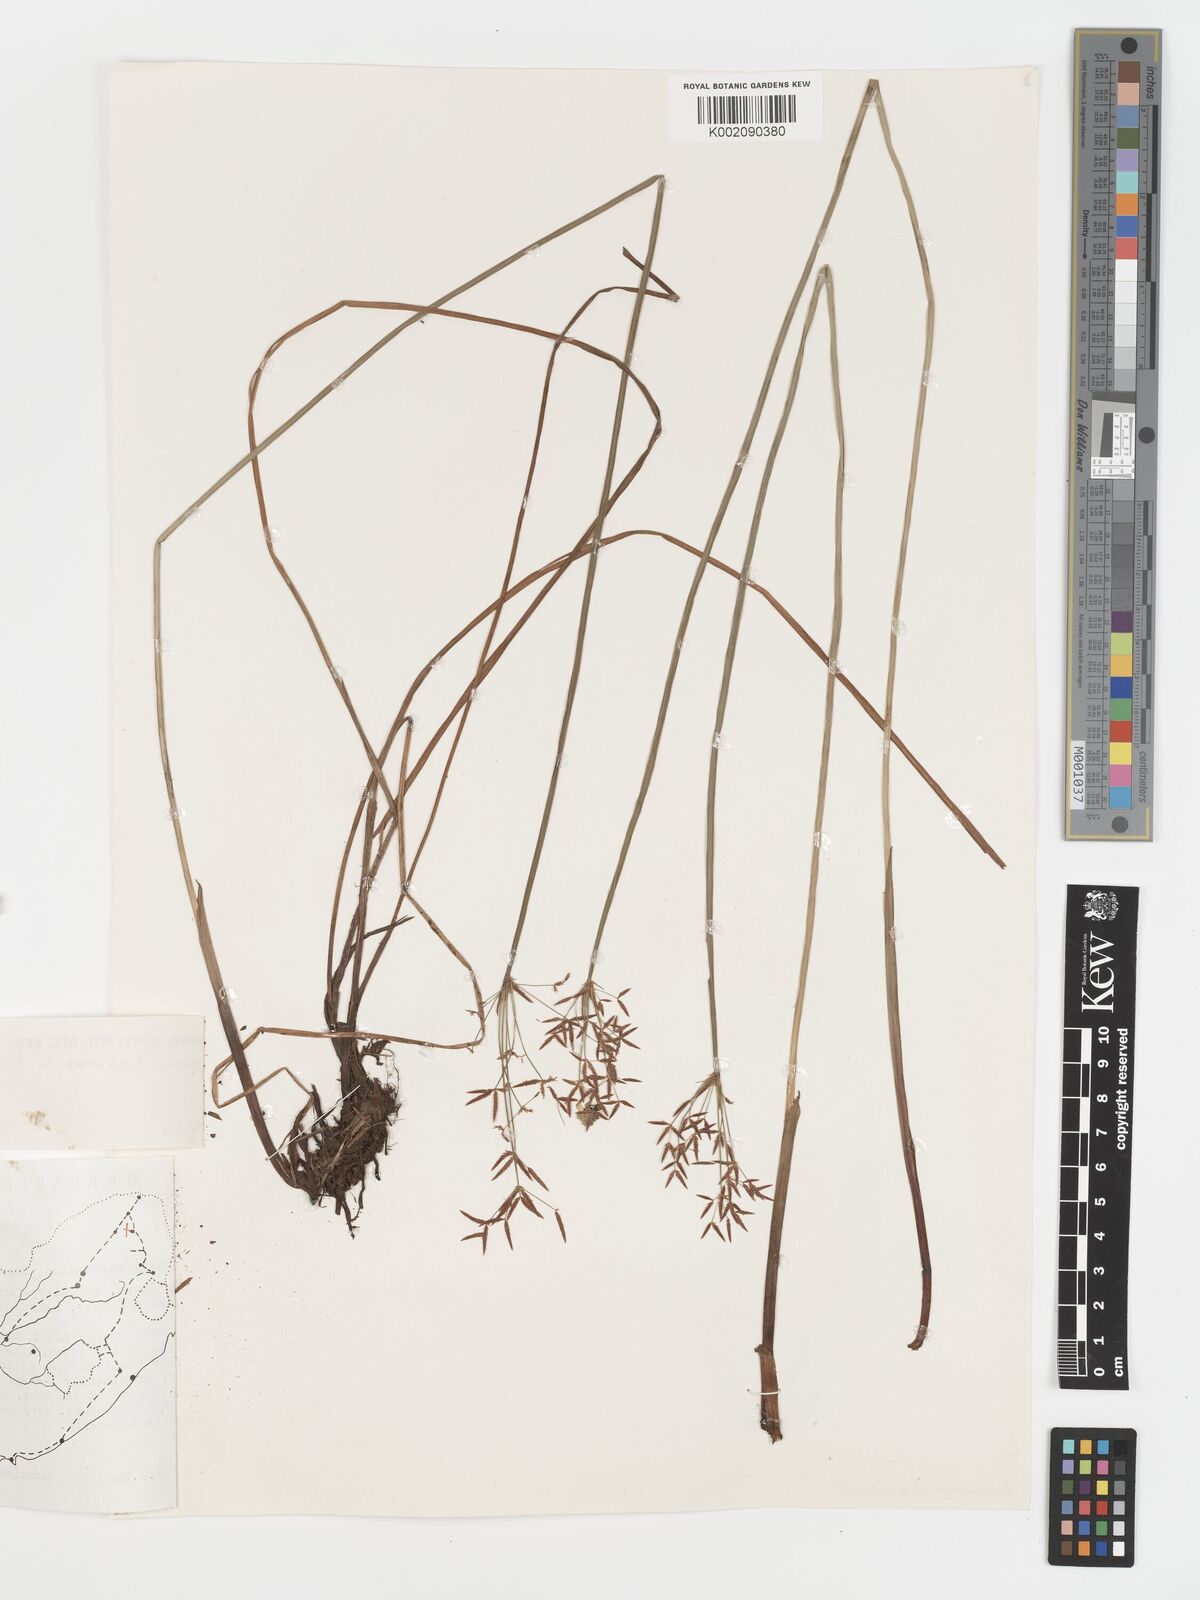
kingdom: Plantae
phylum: Tracheophyta
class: Liliopsida
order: Poales
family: Cyperaceae
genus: Cyperus
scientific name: Cyperus haspan
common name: Haspan flatsedge
